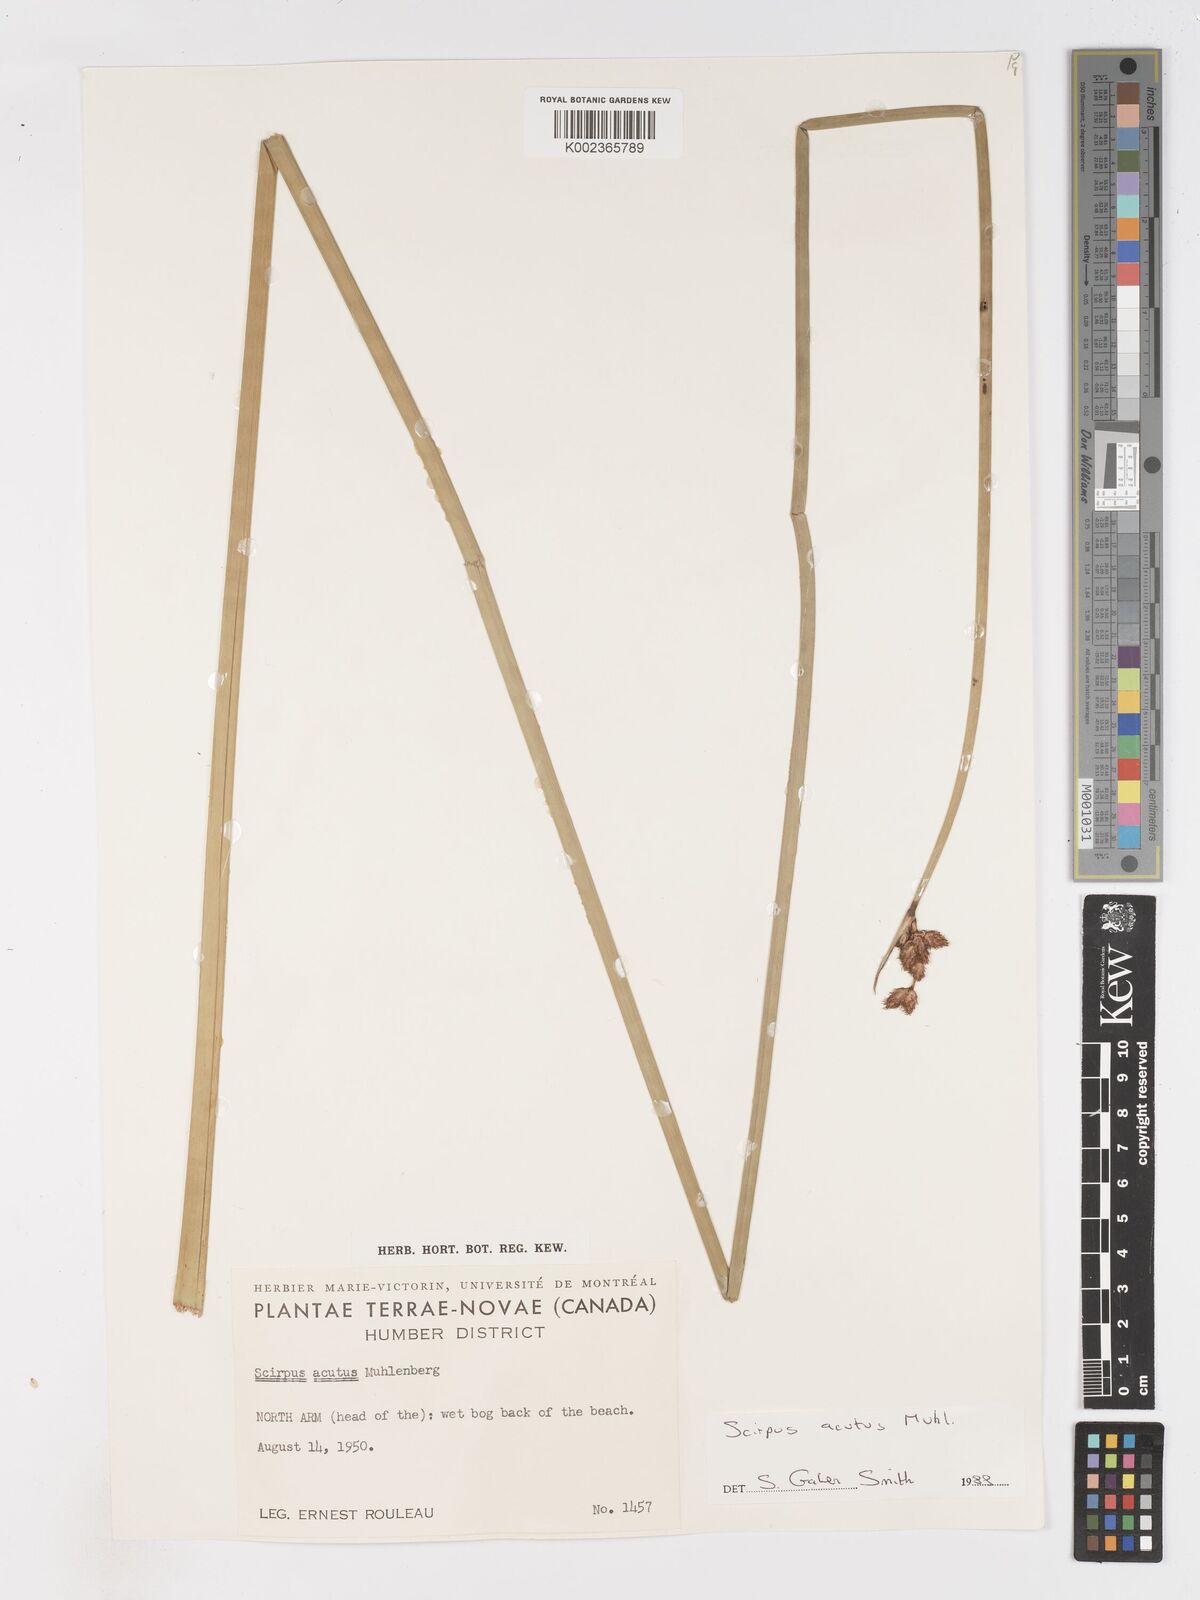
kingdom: Plantae
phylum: Tracheophyta
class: Liliopsida
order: Poales
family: Cyperaceae
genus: Schoenoplectus
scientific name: Schoenoplectus lacustris
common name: Common club-rush
